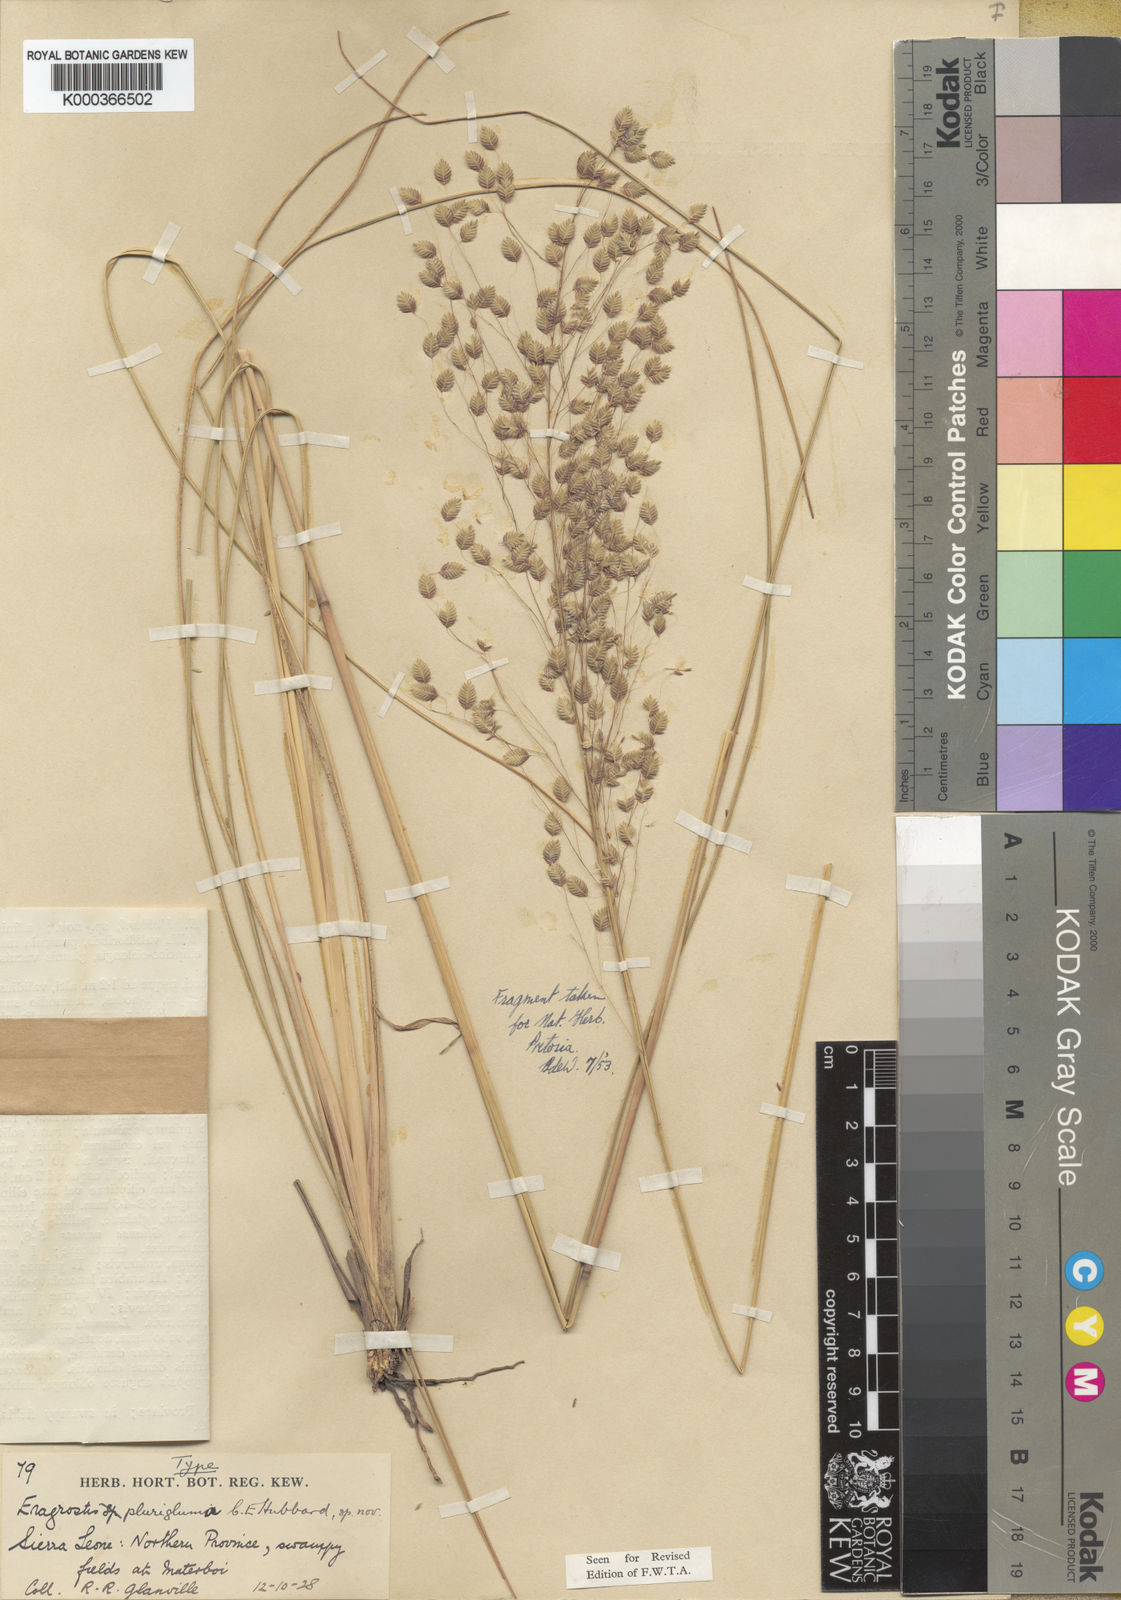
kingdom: Plantae
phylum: Tracheophyta
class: Liliopsida
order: Poales
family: Poaceae
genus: Eragrostis
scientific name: Eragrostis plurigluma
